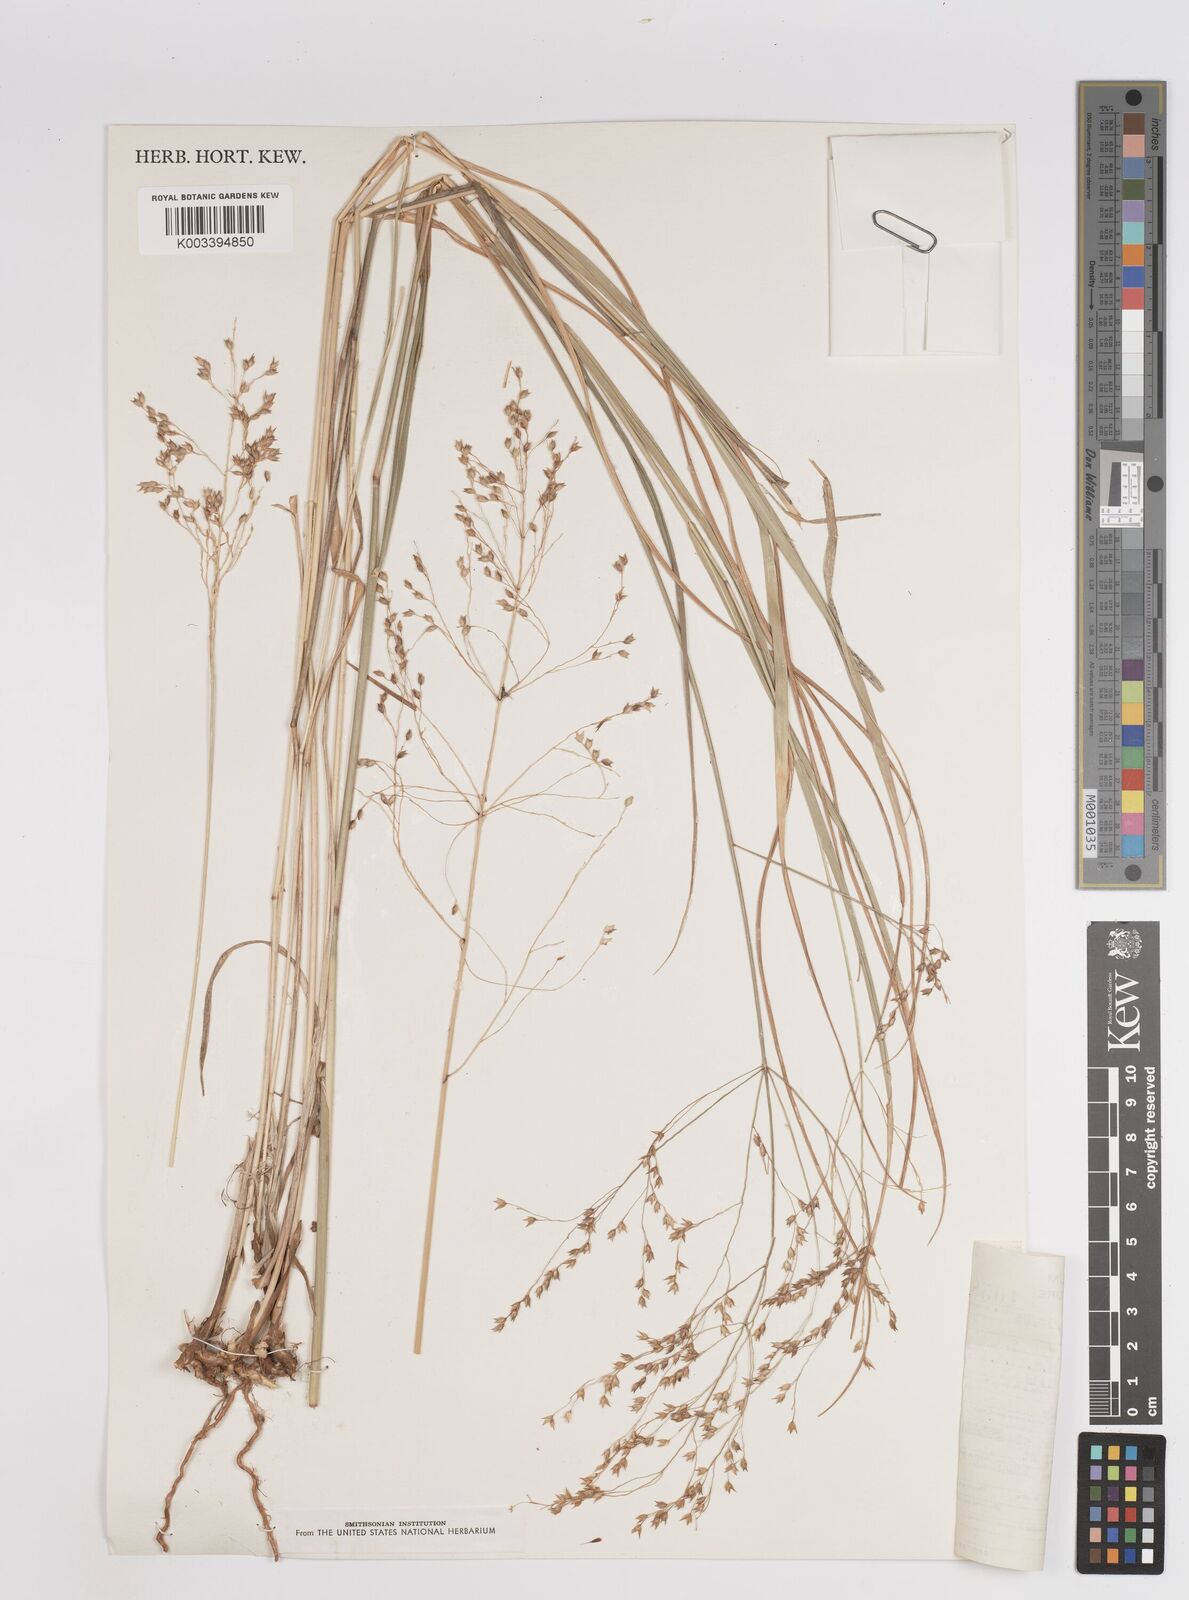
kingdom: Plantae
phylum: Tracheophyta
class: Liliopsida
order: Poales
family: Poaceae
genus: Panicum
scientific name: Panicum virgatum
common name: Switchgrass
